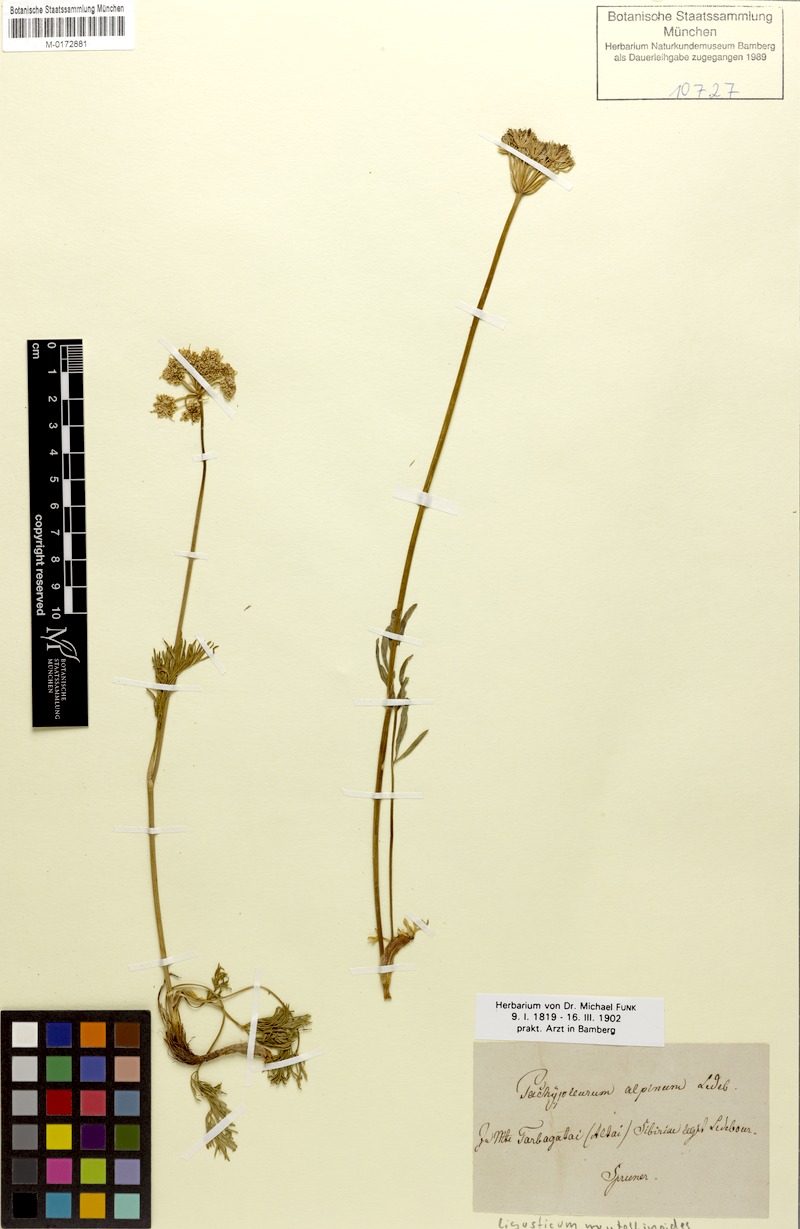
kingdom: Plantae
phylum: Tracheophyta
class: Magnoliopsida
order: Apiales
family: Apiaceae
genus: Pachypleurum
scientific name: Pachypleurum mutellinoides
